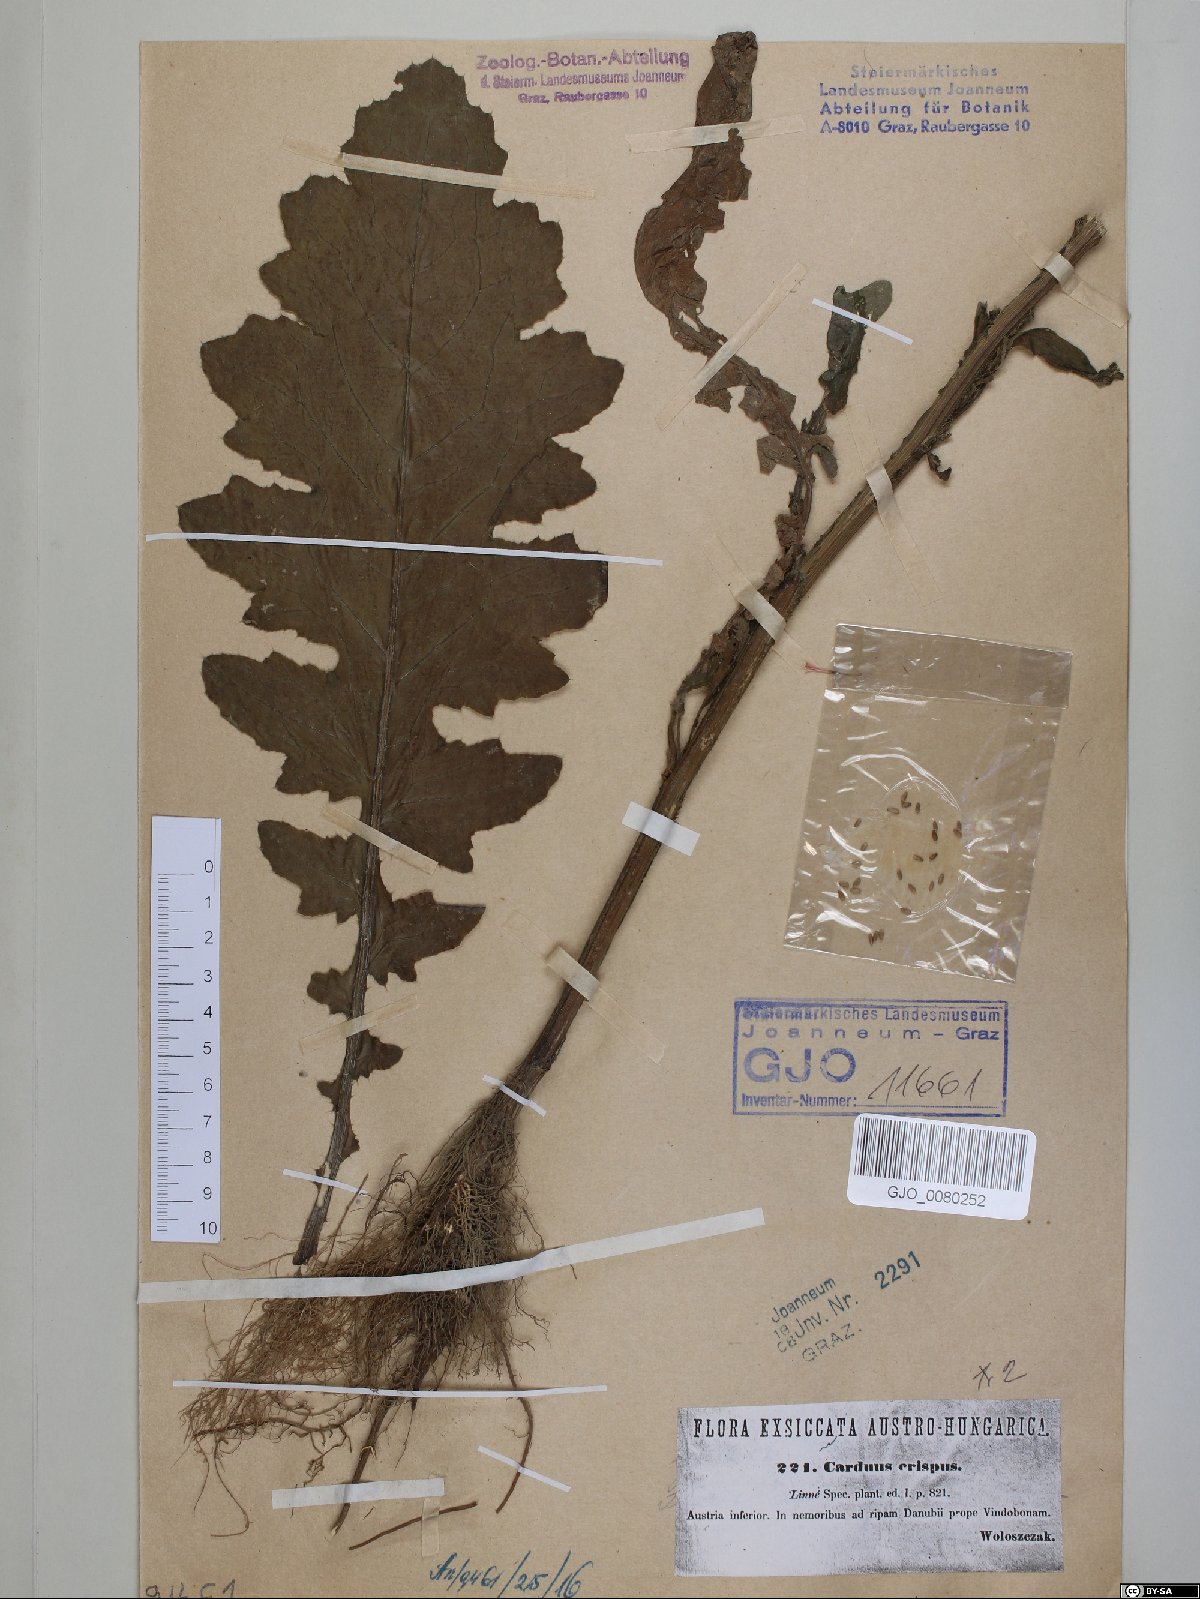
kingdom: Plantae
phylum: Tracheophyta
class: Magnoliopsida
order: Asterales
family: Asteraceae
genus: Carduus
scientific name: Carduus crispus
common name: Welted thistle
